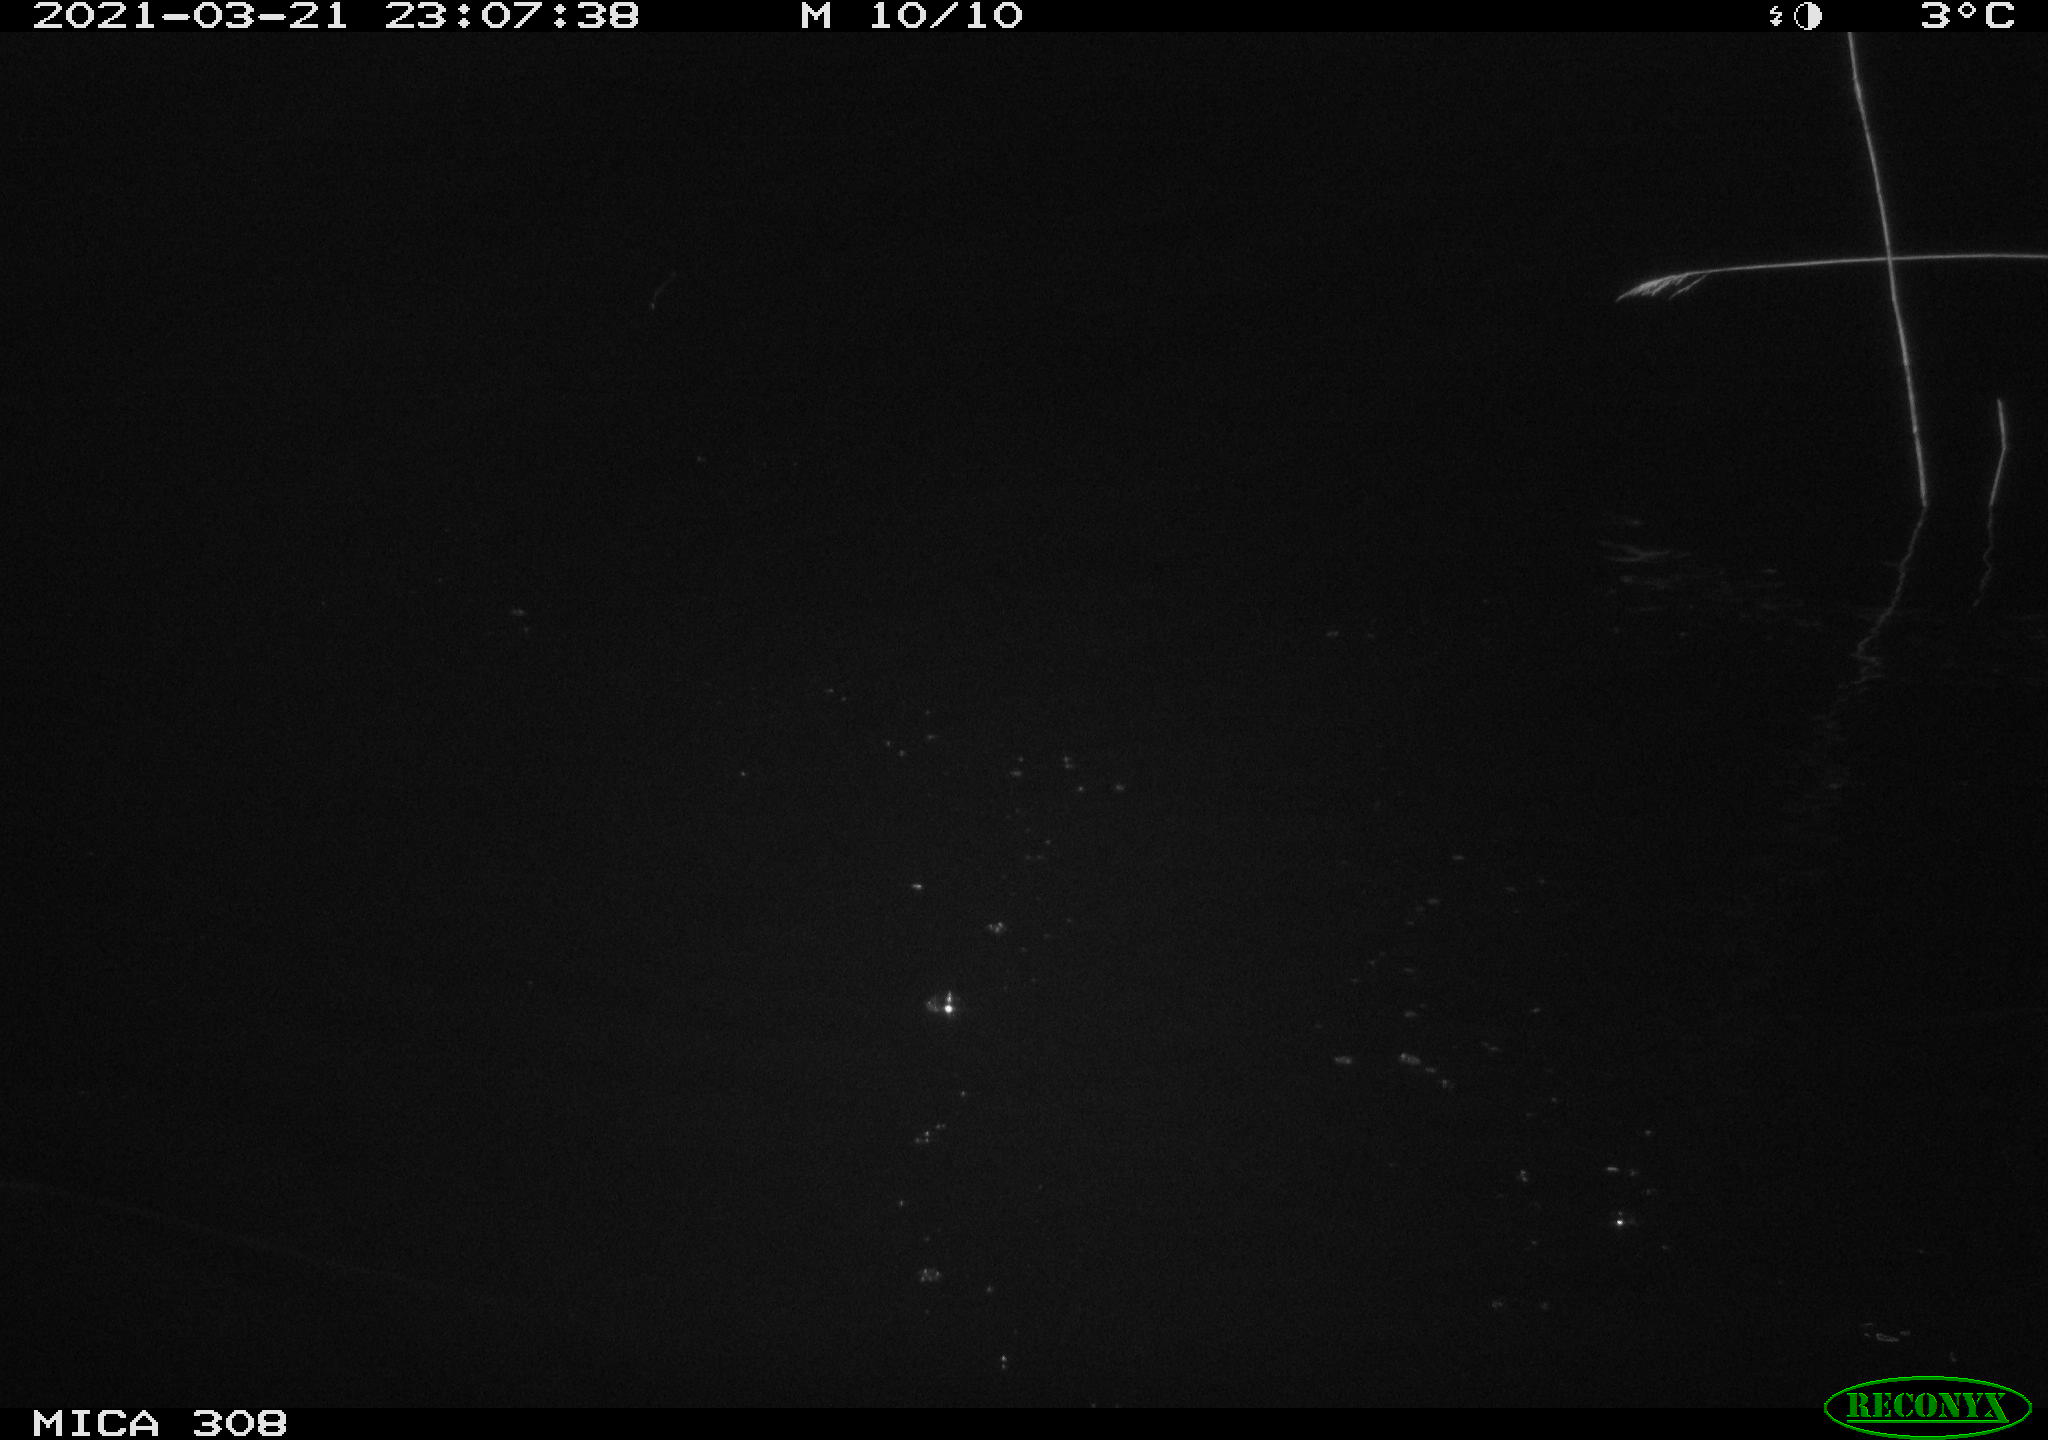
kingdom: Animalia
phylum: Chordata
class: Aves
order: Anseriformes
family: Anatidae
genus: Anas
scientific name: Anas platyrhynchos
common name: Mallard
